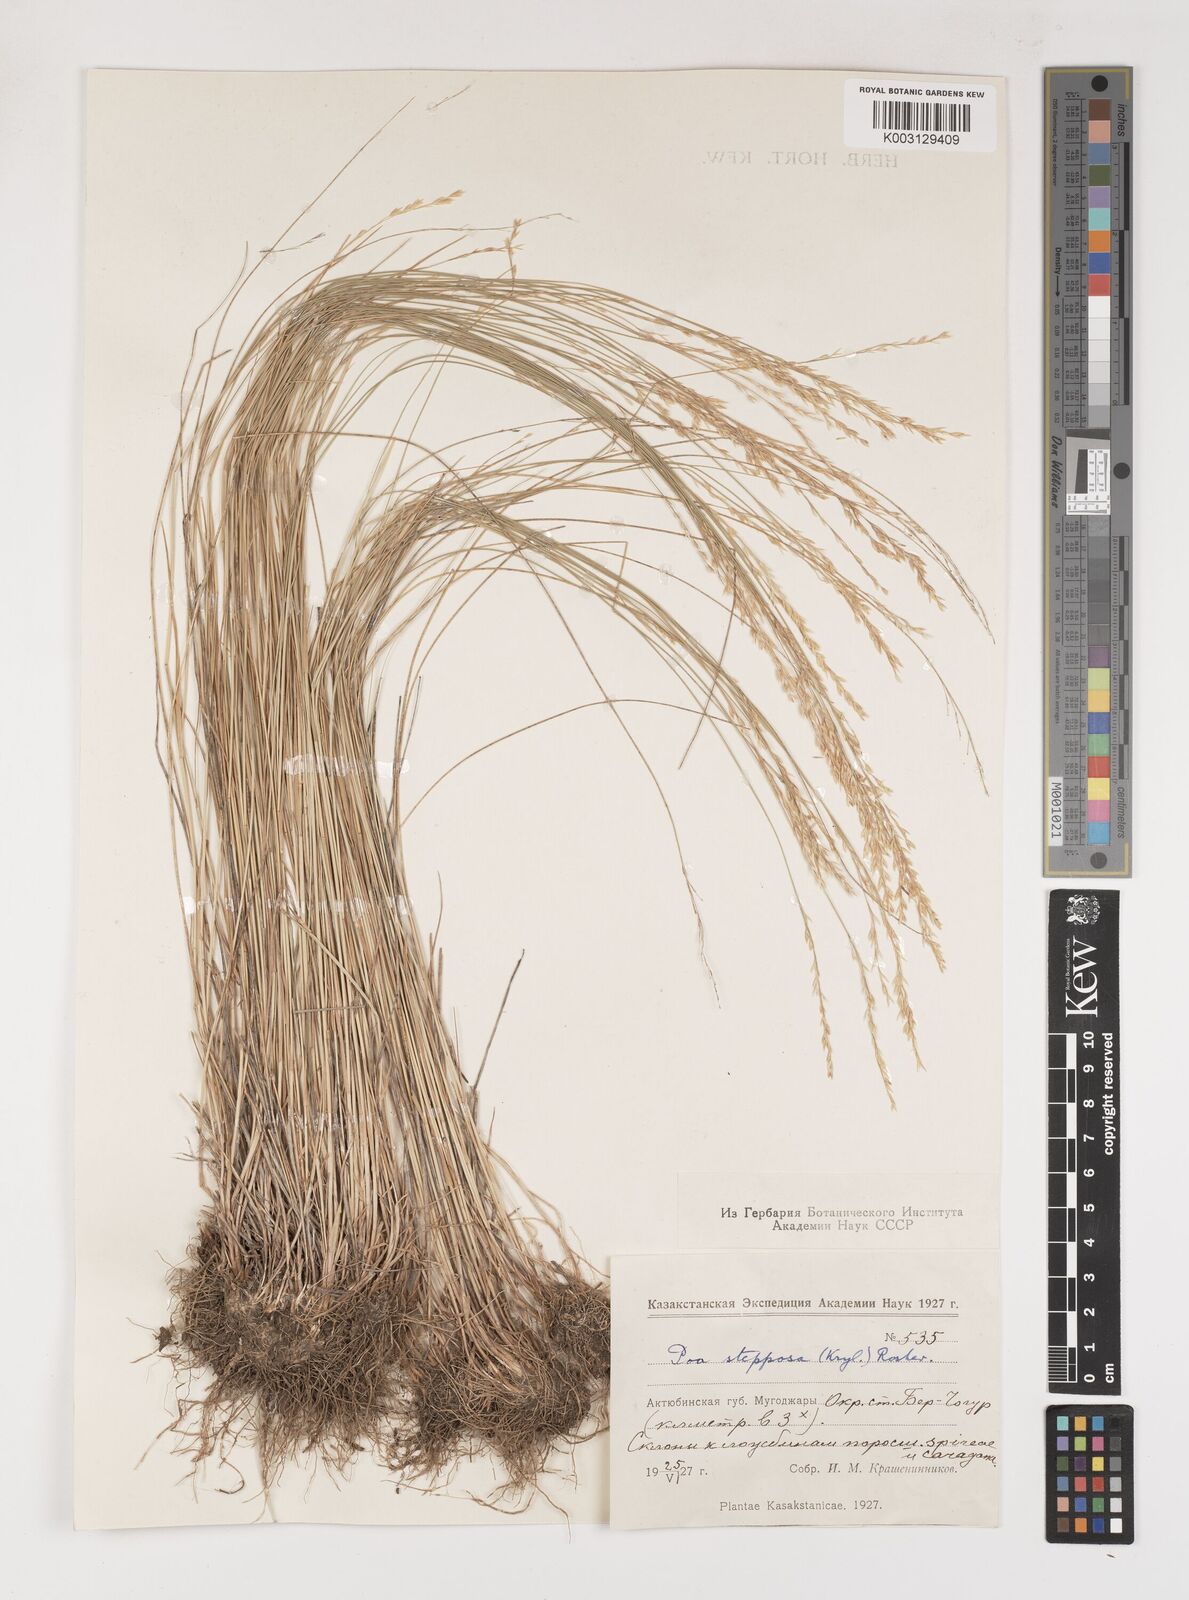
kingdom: Plantae
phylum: Tracheophyta
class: Liliopsida
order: Poales
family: Poaceae
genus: Poa
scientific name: Poa versicolor
